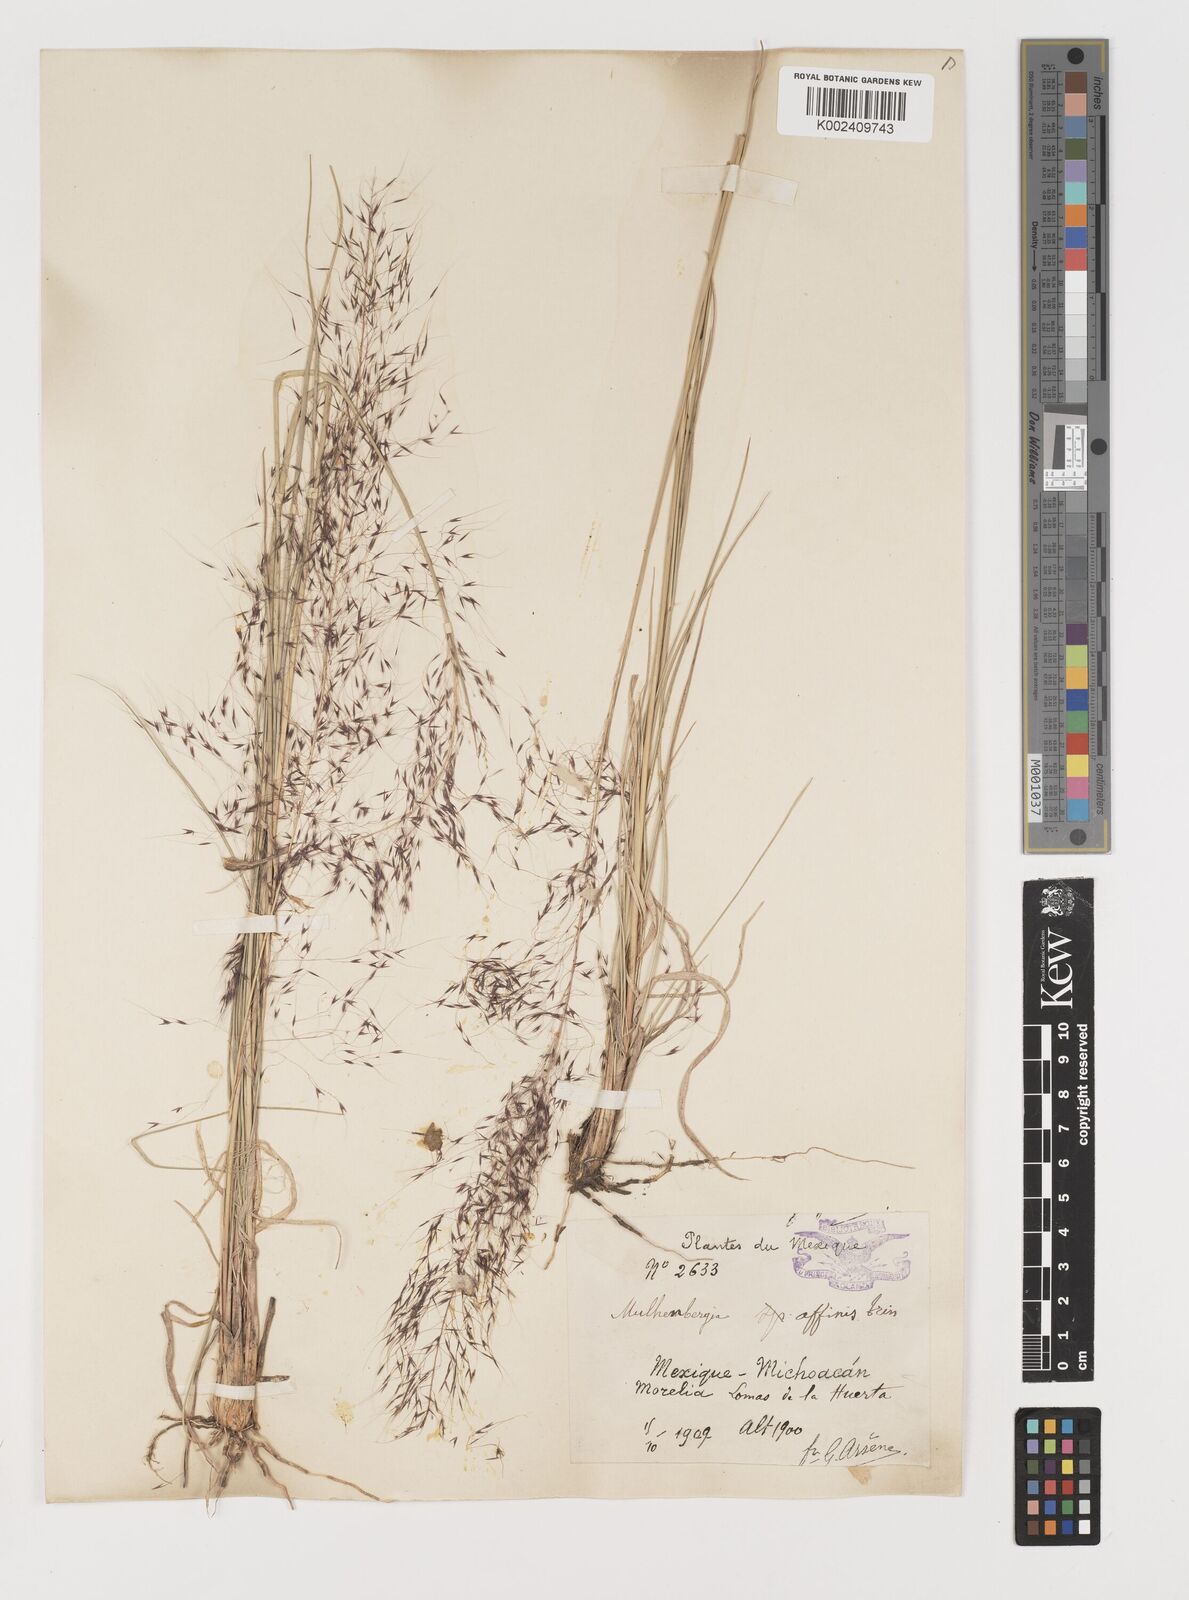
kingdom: Plantae
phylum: Tracheophyta
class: Liliopsida
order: Poales
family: Poaceae
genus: Muhlenbergia
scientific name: Muhlenbergia rigida
